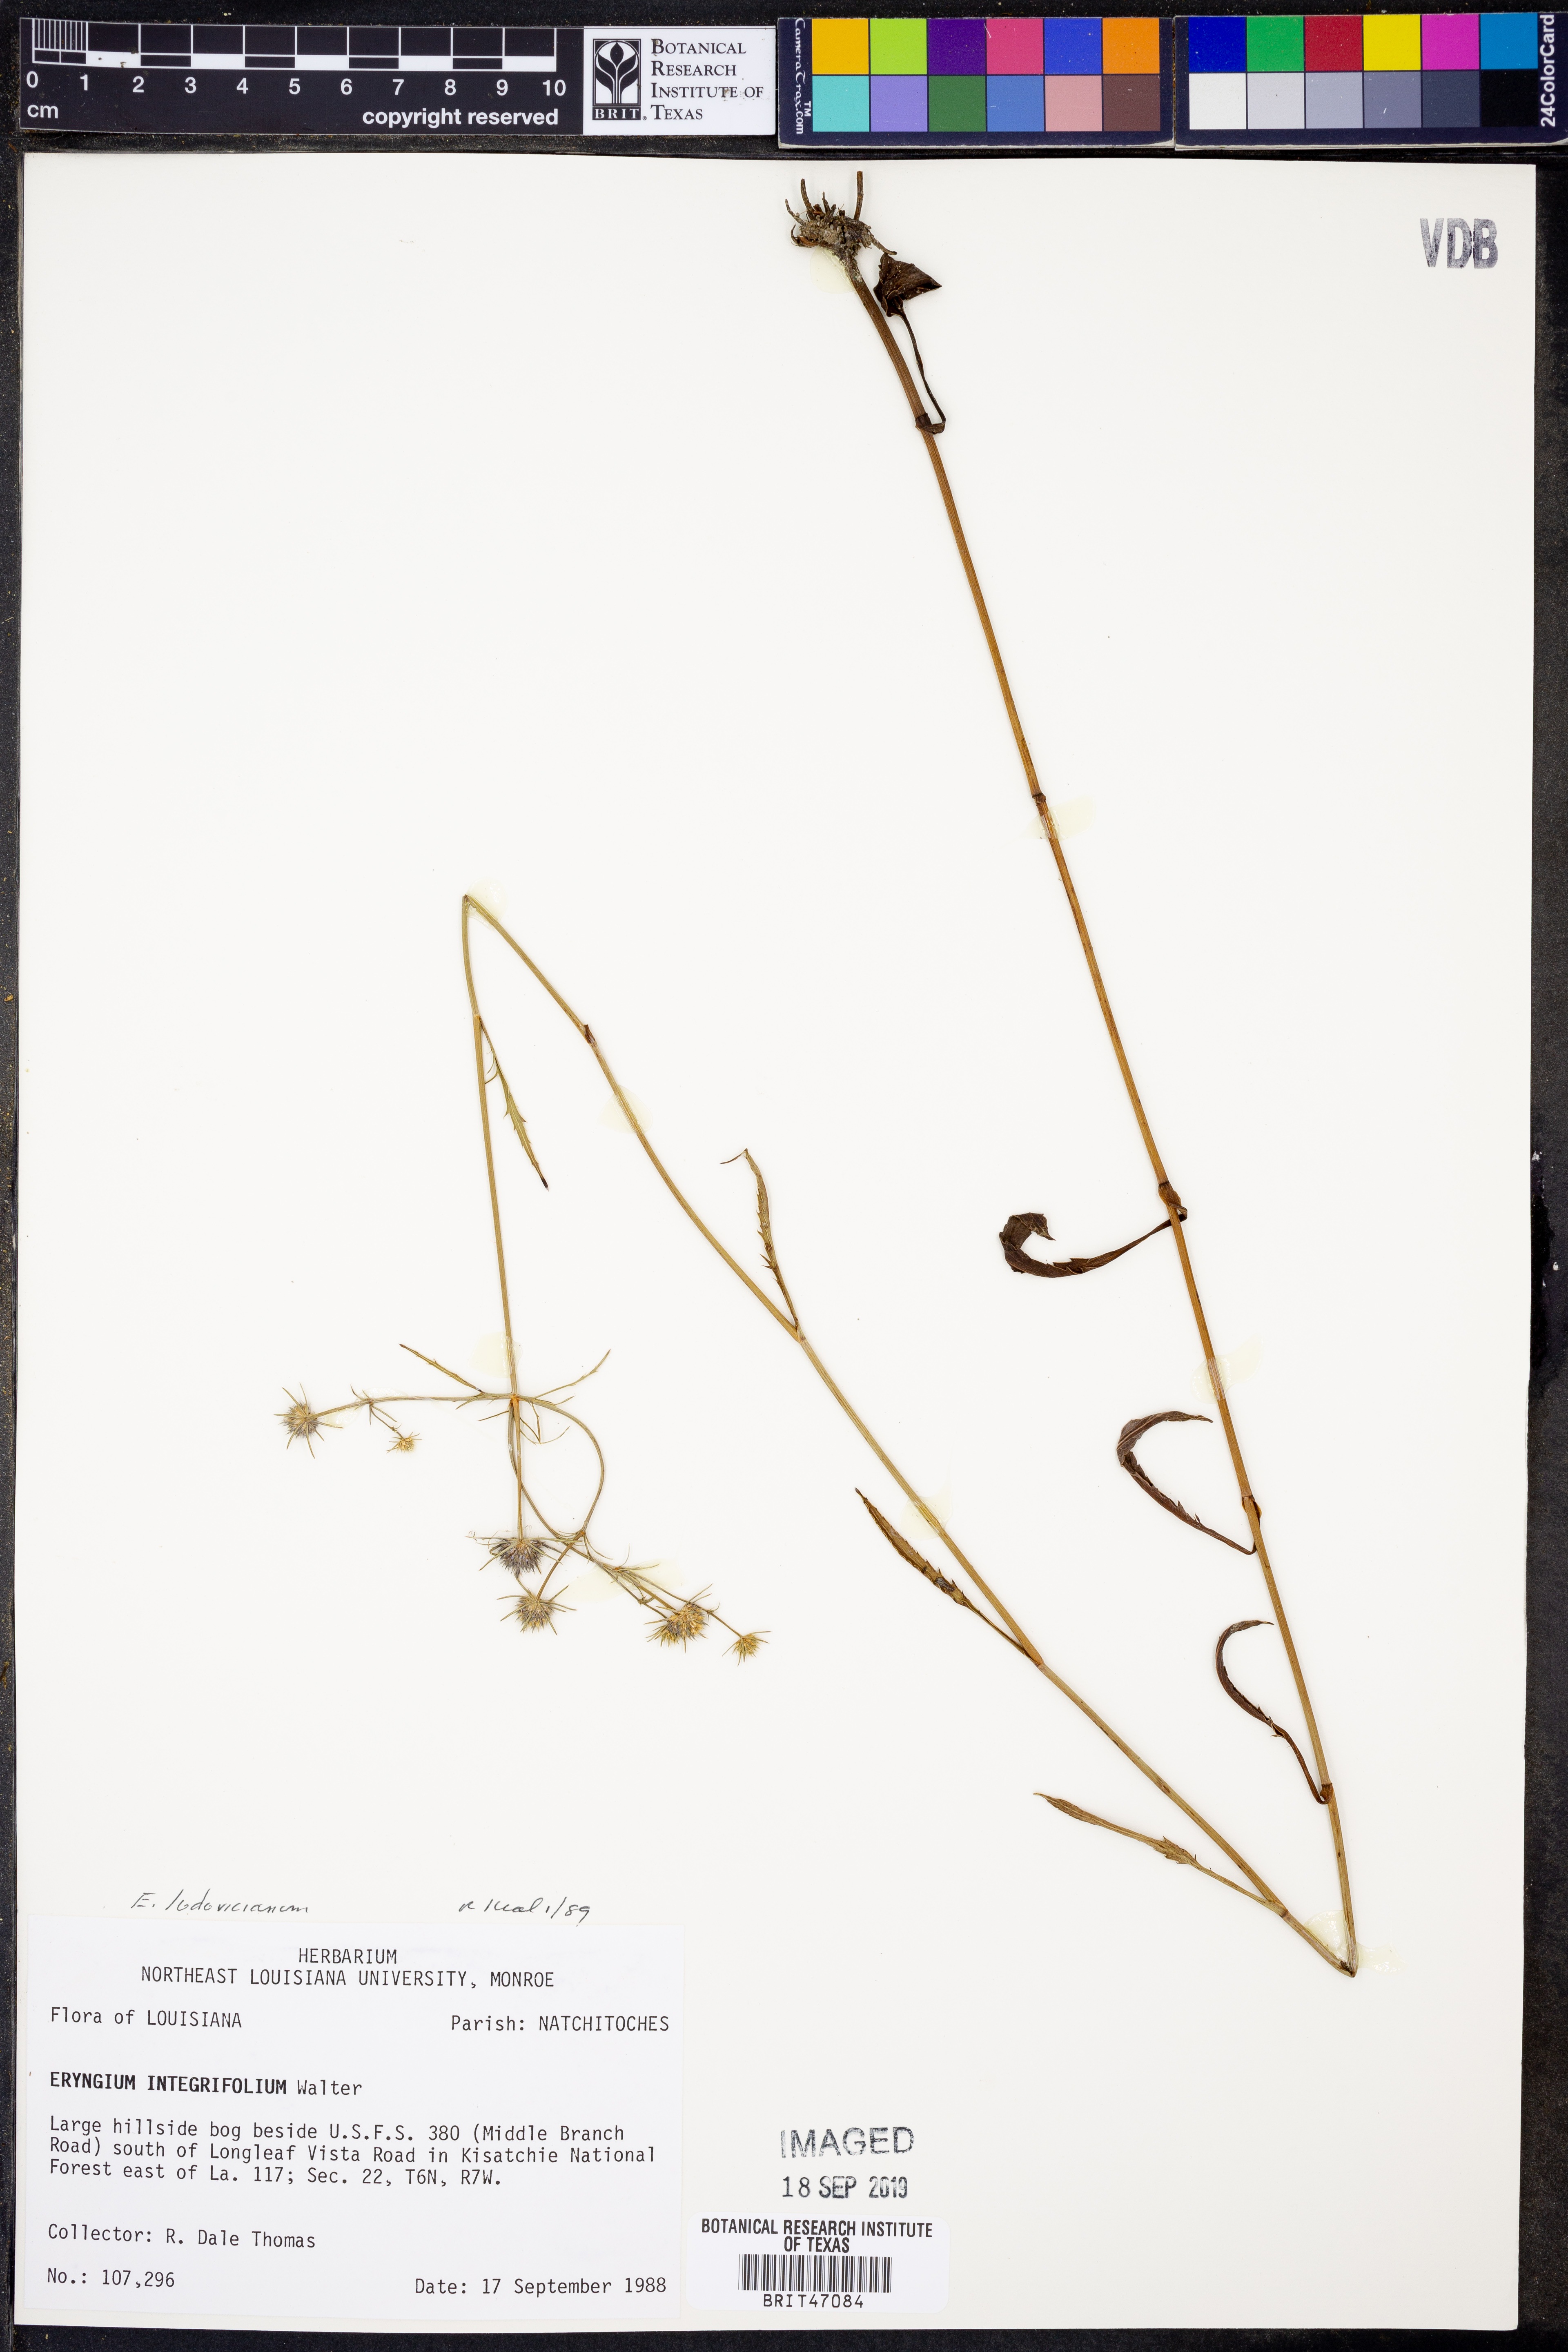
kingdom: Plantae
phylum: Tracheophyta
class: Magnoliopsida
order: Apiales
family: Apiaceae
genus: Eryngium
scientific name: Eryngium integrifolium
